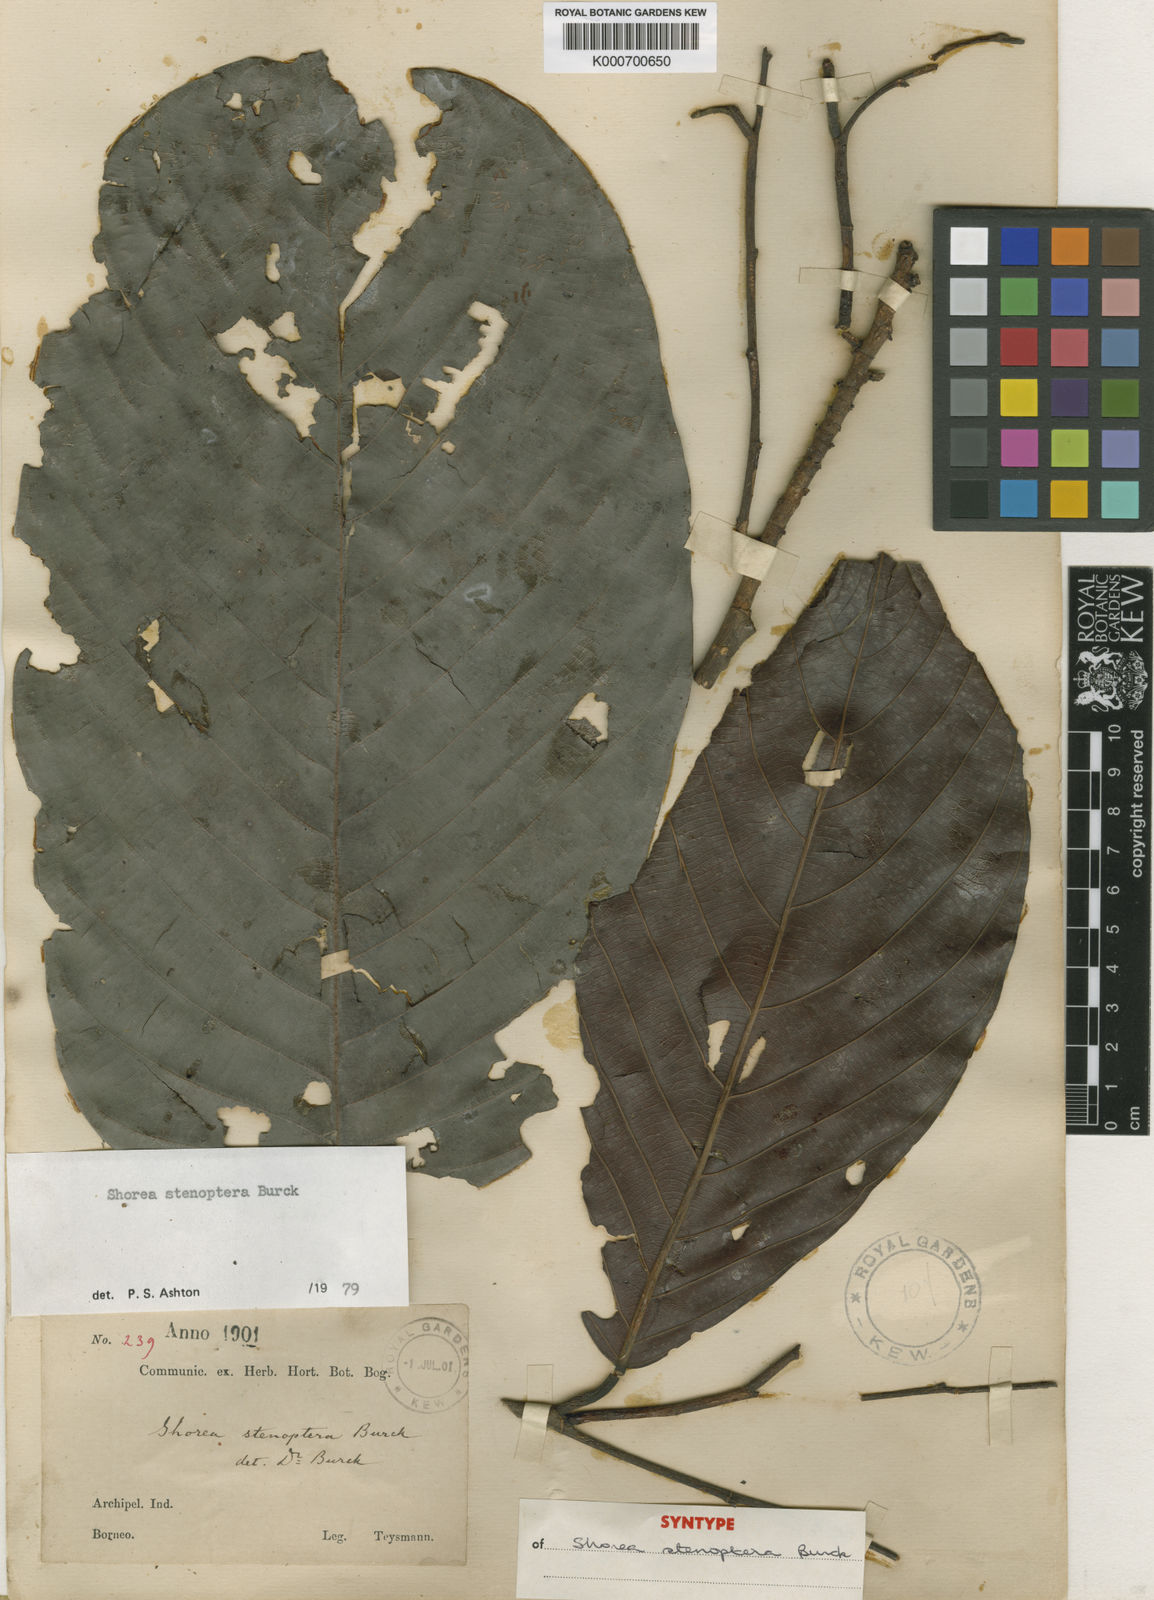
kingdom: Plantae
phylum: Tracheophyta
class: Magnoliopsida
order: Malvales
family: Dipterocarpaceae
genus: Shorea
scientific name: Shorea stenoptera
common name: Light red meranti
